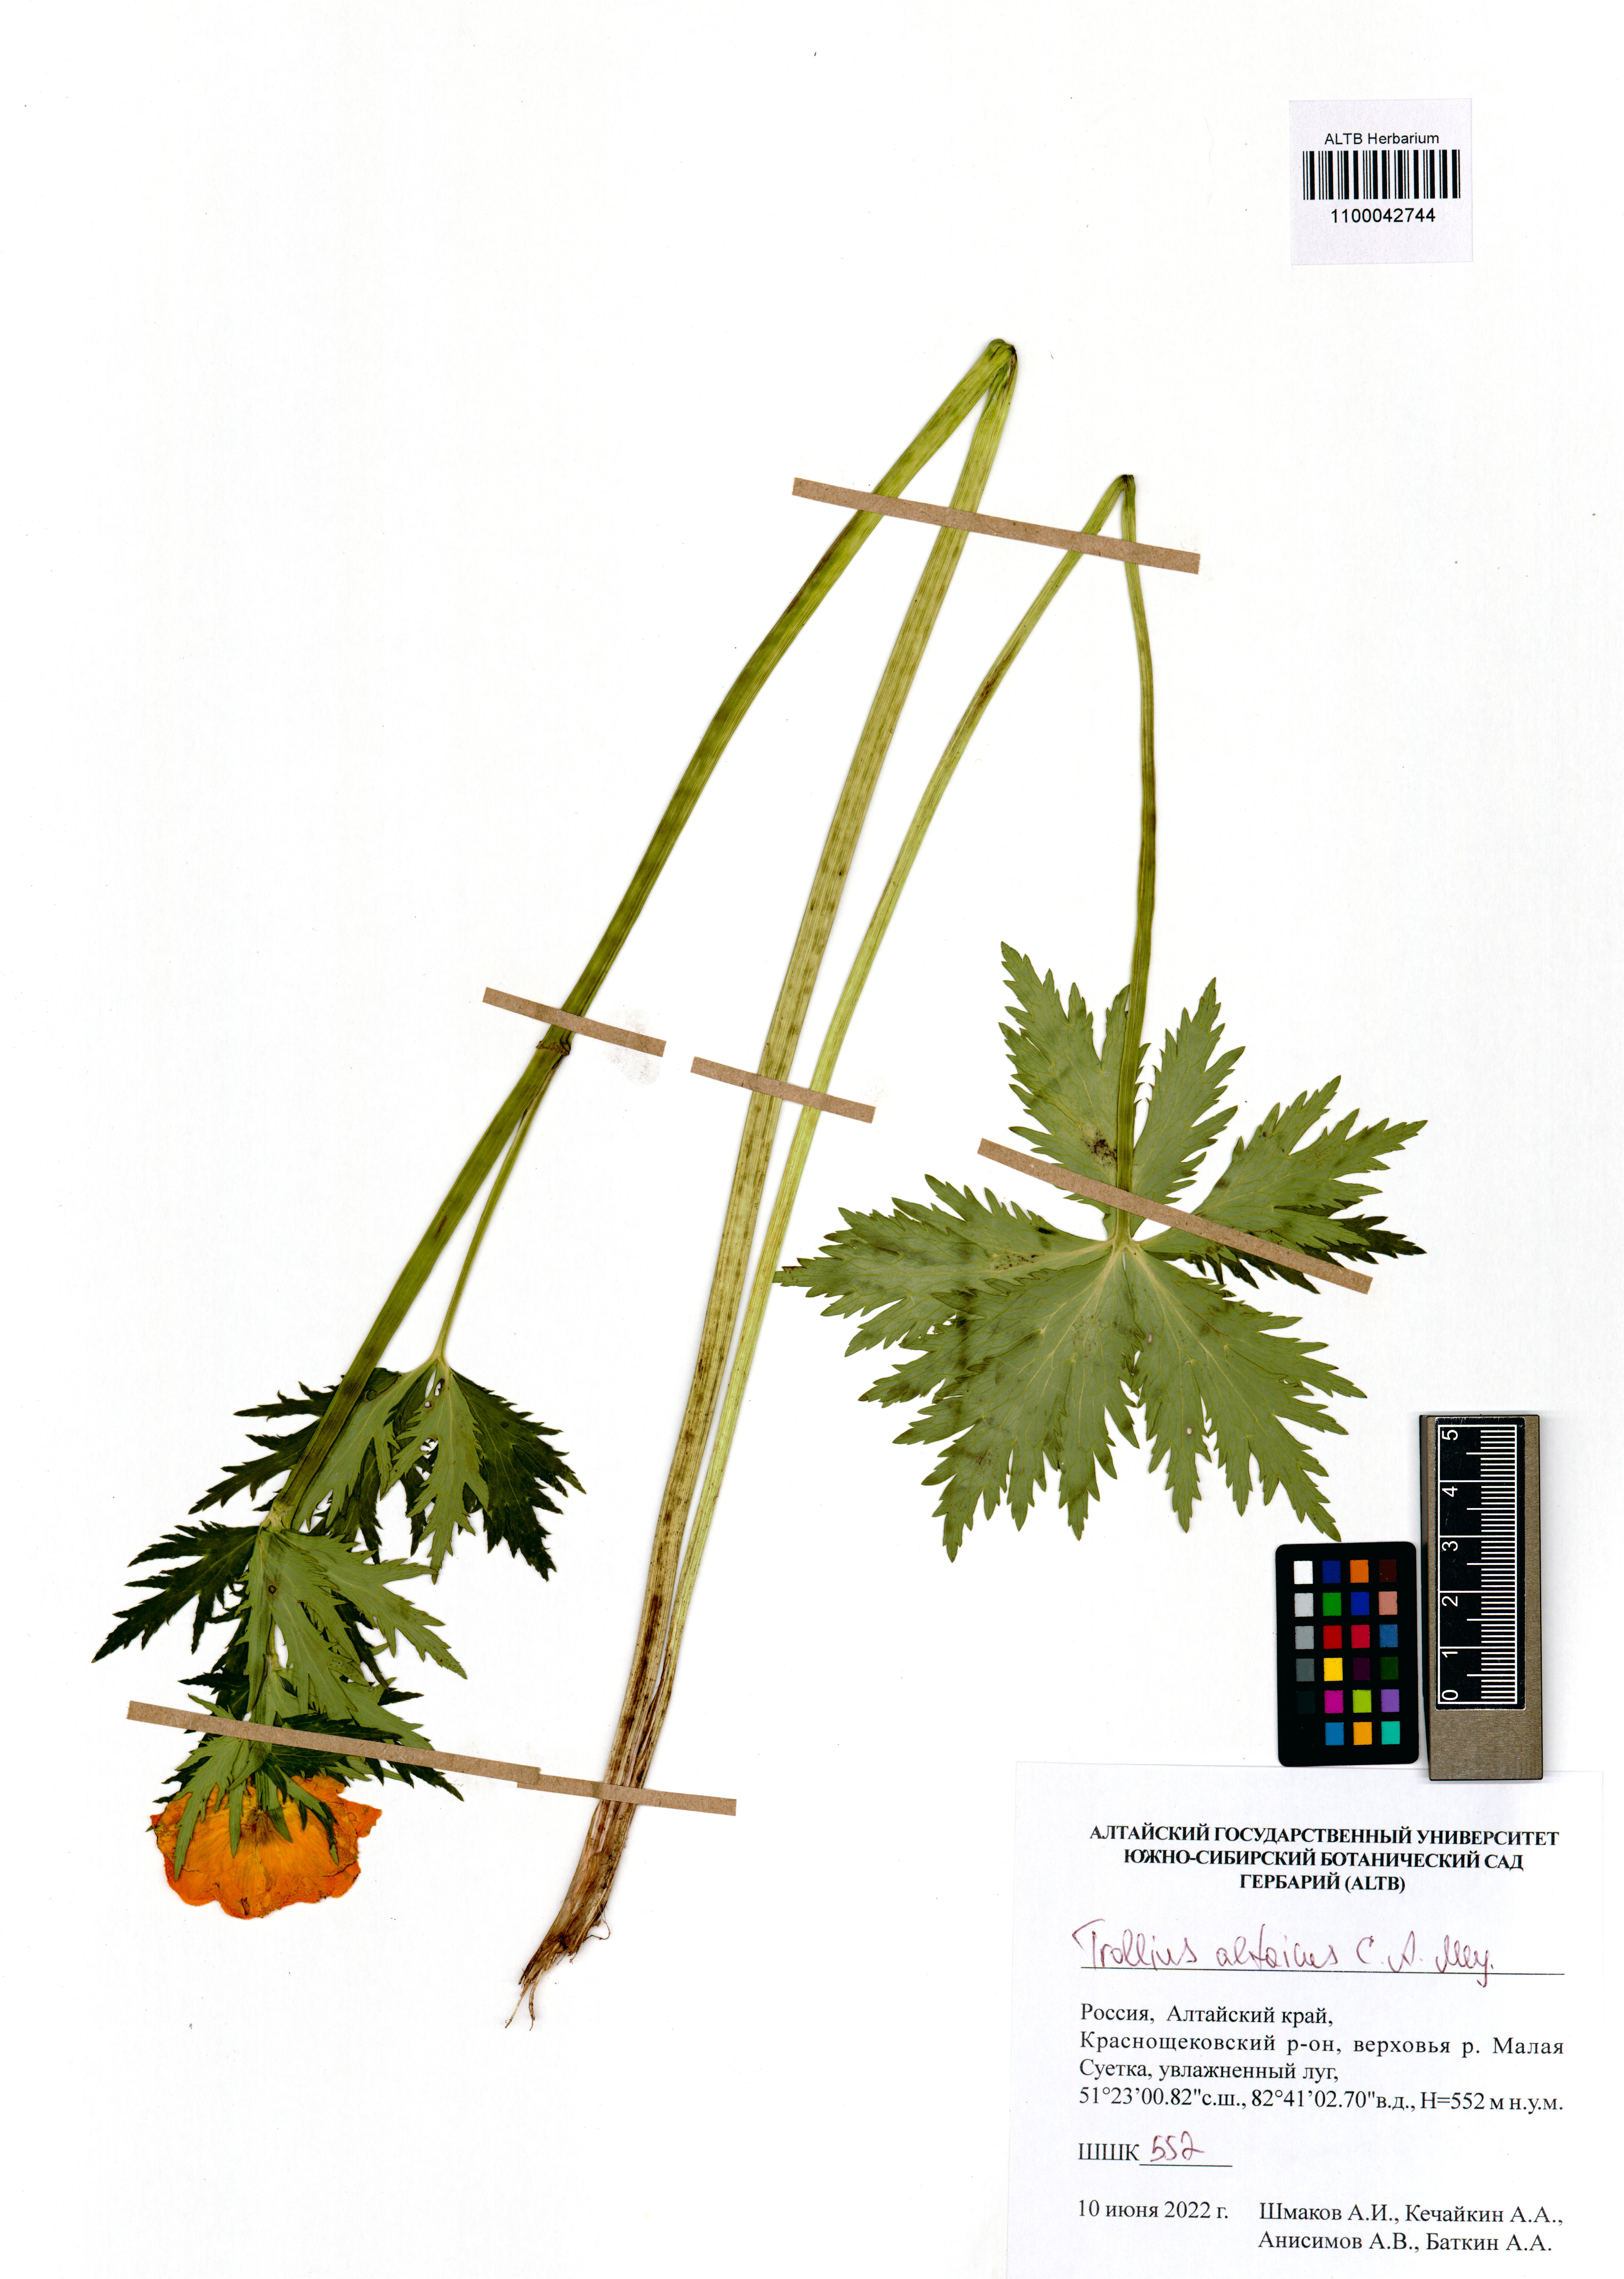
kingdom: Plantae
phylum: Tracheophyta
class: Magnoliopsida
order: Ranunculales
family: Ranunculaceae
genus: Trollius
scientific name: Trollius altaicus
